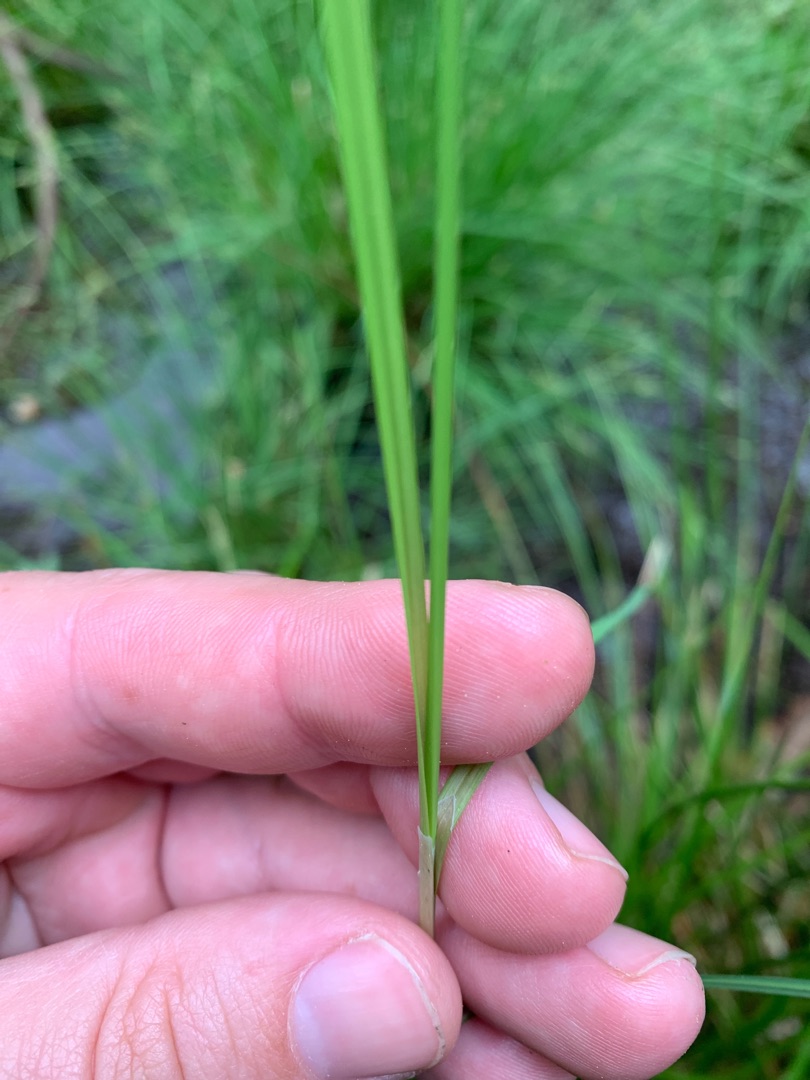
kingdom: Plantae
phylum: Tracheophyta
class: Liliopsida
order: Poales
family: Cyperaceae
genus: Carex
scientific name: Carex canescens
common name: Grå star
